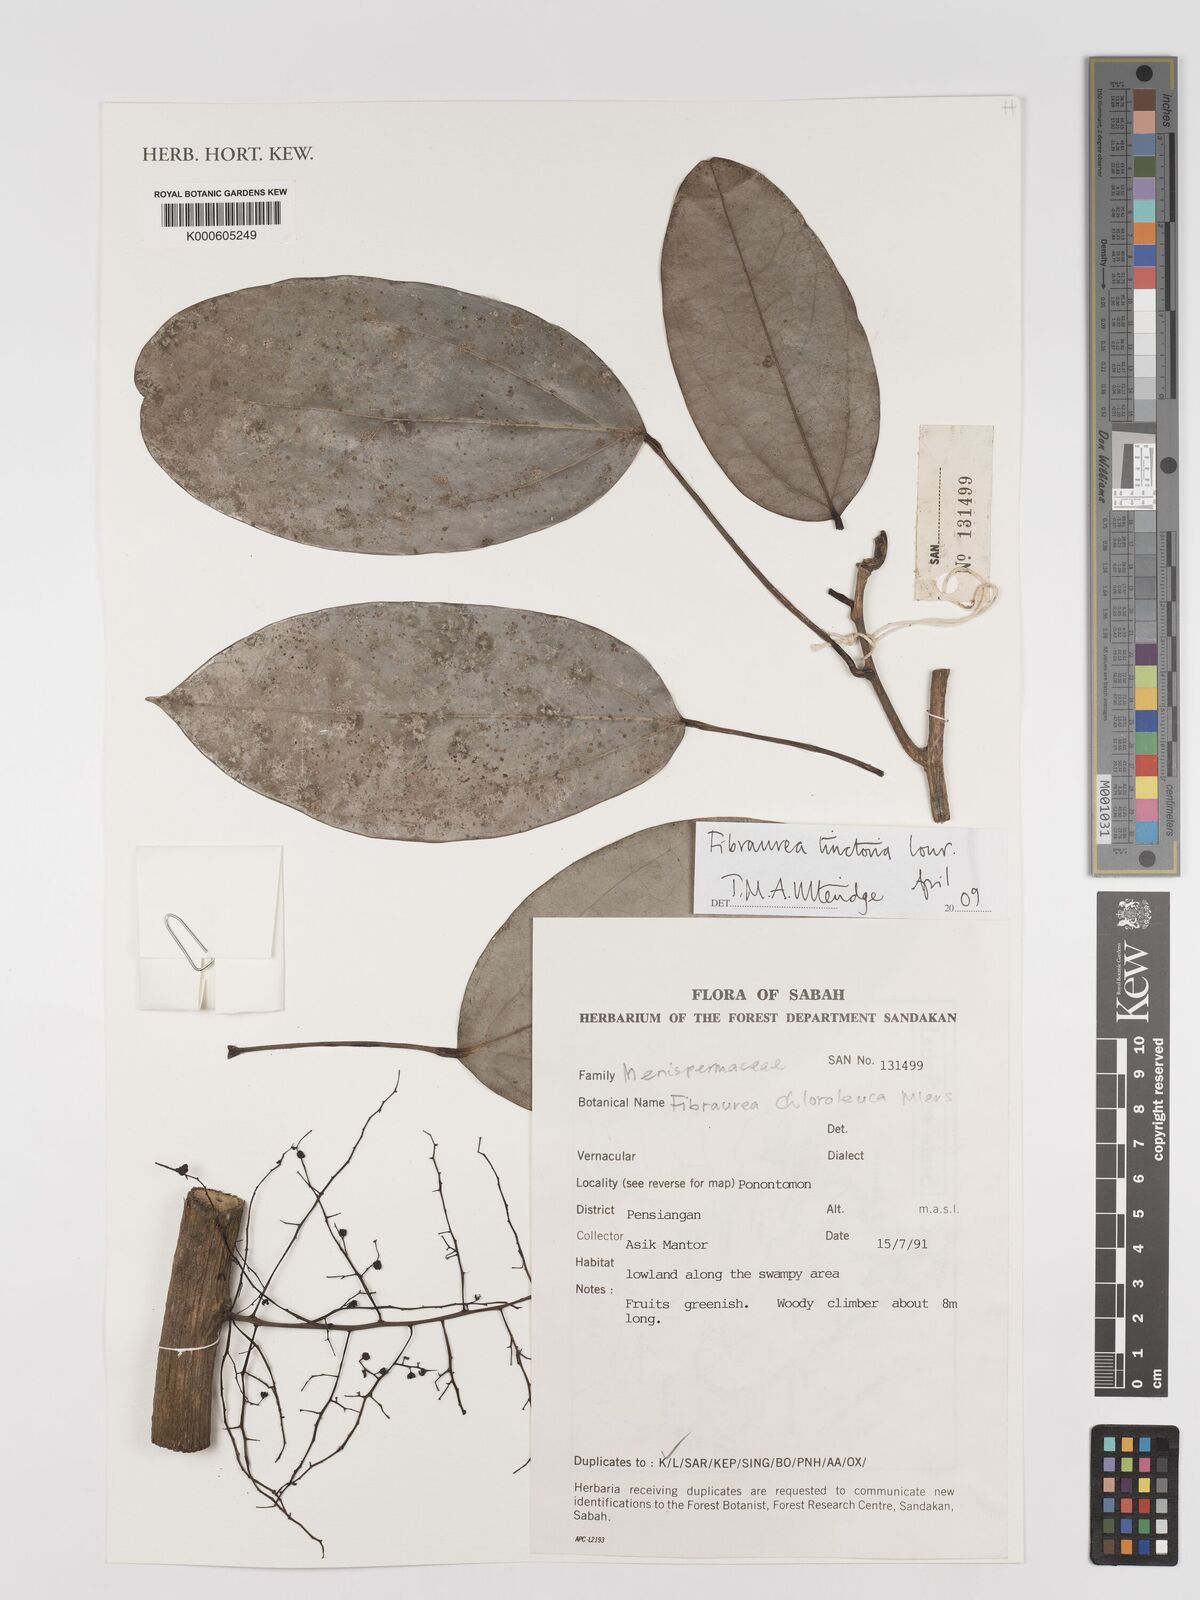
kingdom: Plantae
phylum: Tracheophyta
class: Magnoliopsida
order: Ranunculales
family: Menispermaceae
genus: Fibraurea
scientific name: Fibraurea tinctoria
